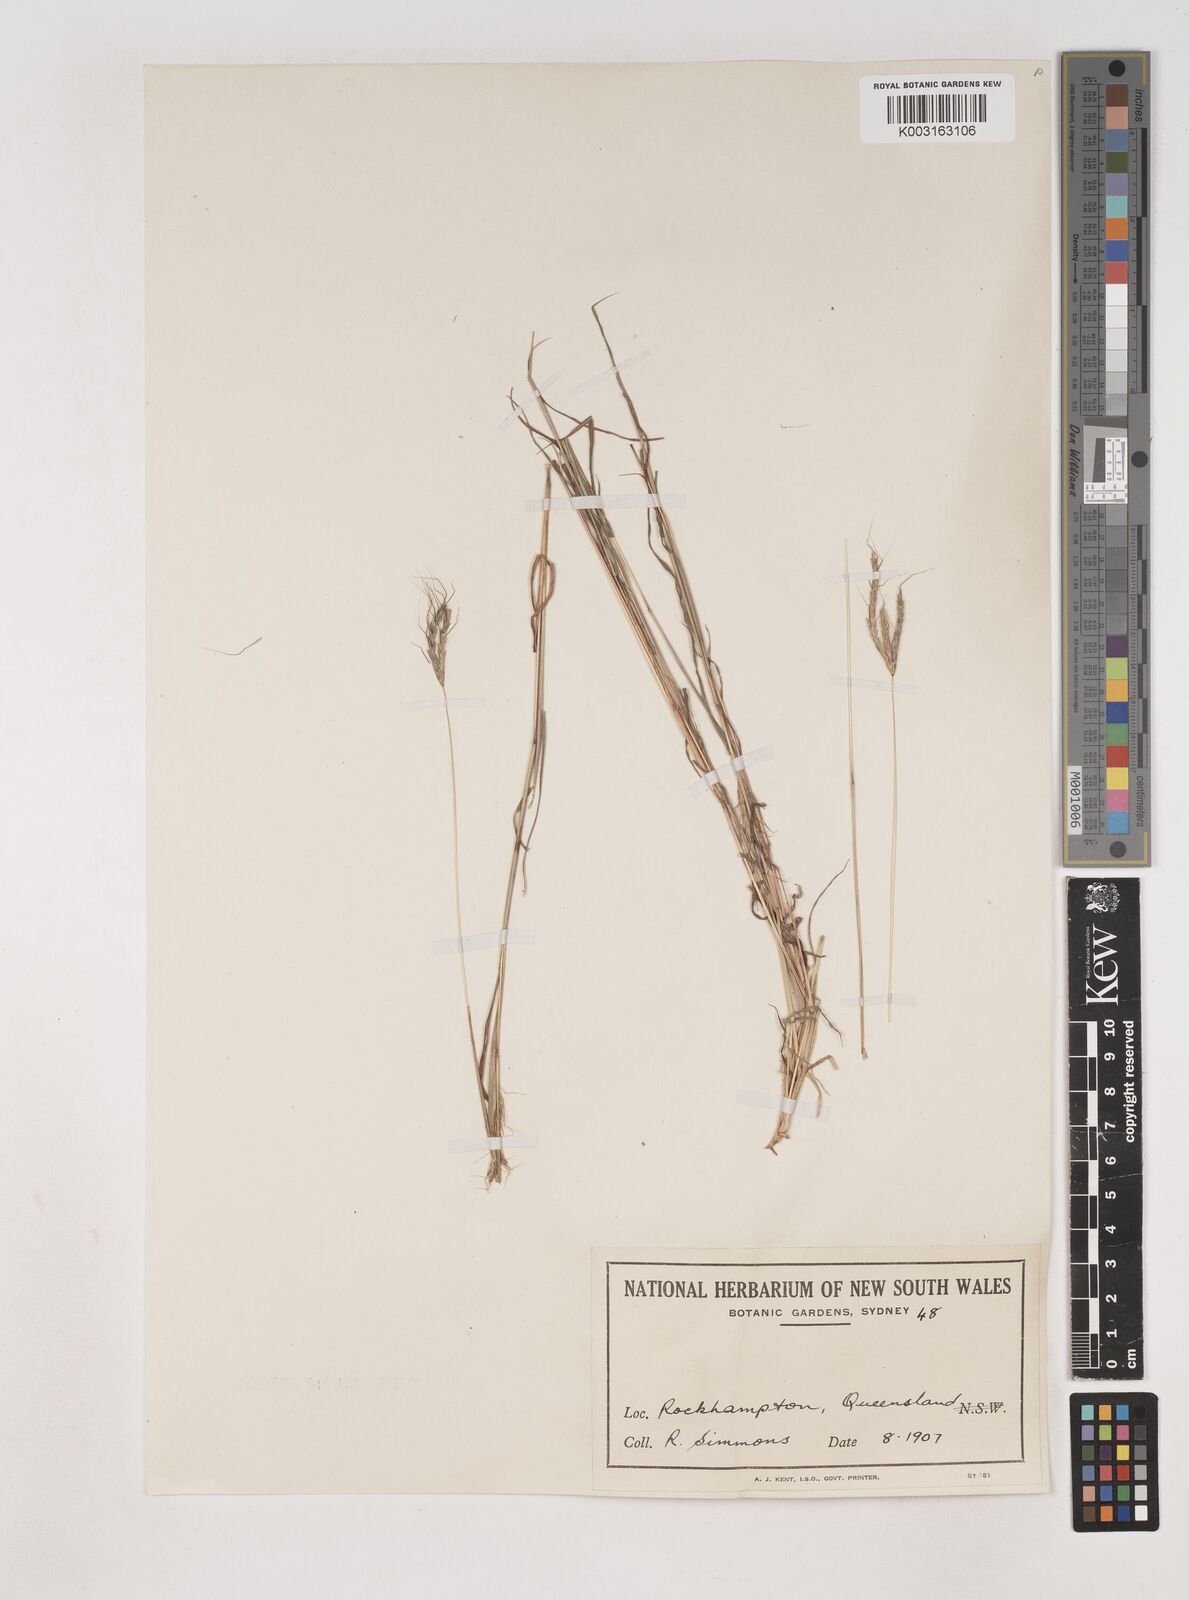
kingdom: Plantae
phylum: Tracheophyta
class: Liliopsida
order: Poales
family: Poaceae
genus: Dichanthium
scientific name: Dichanthium sericeum
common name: Silky bluestem
